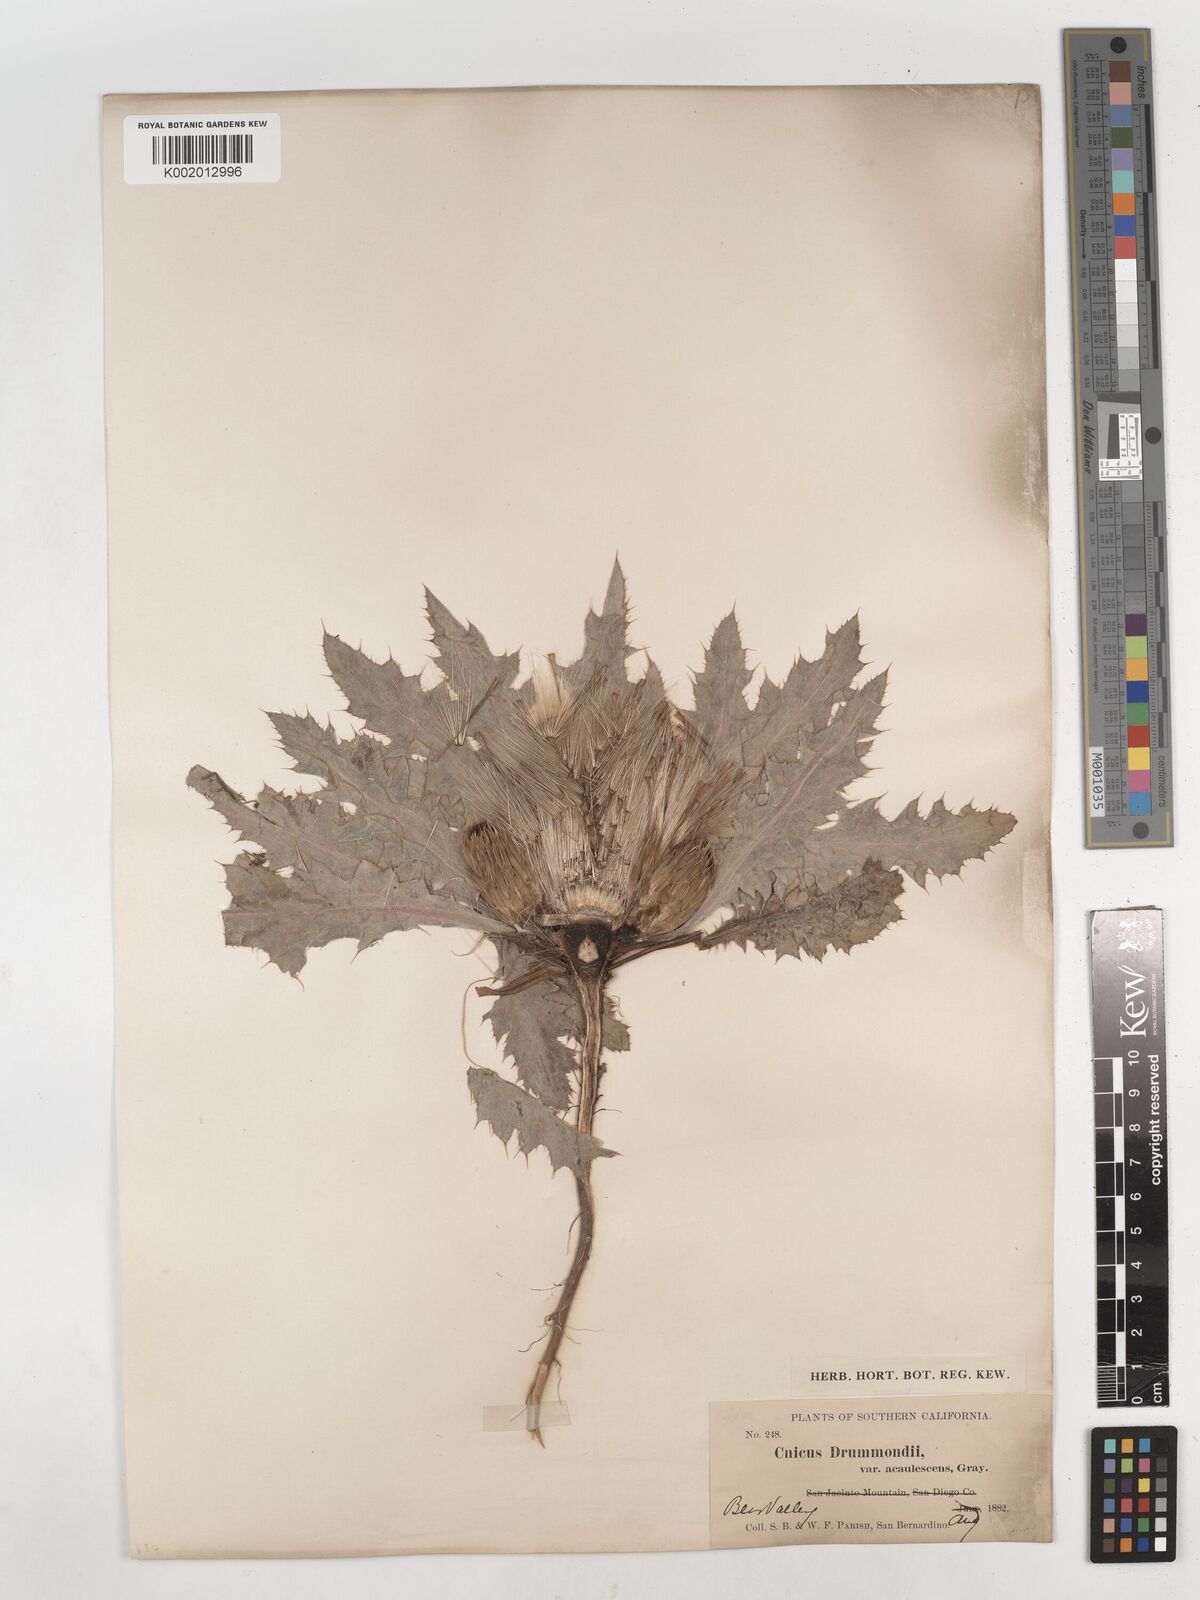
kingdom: Plantae
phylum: Tracheophyta
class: Magnoliopsida
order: Asterales
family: Asteraceae
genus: Cirsium
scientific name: Cirsium drummondii
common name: Drummond's thistle
